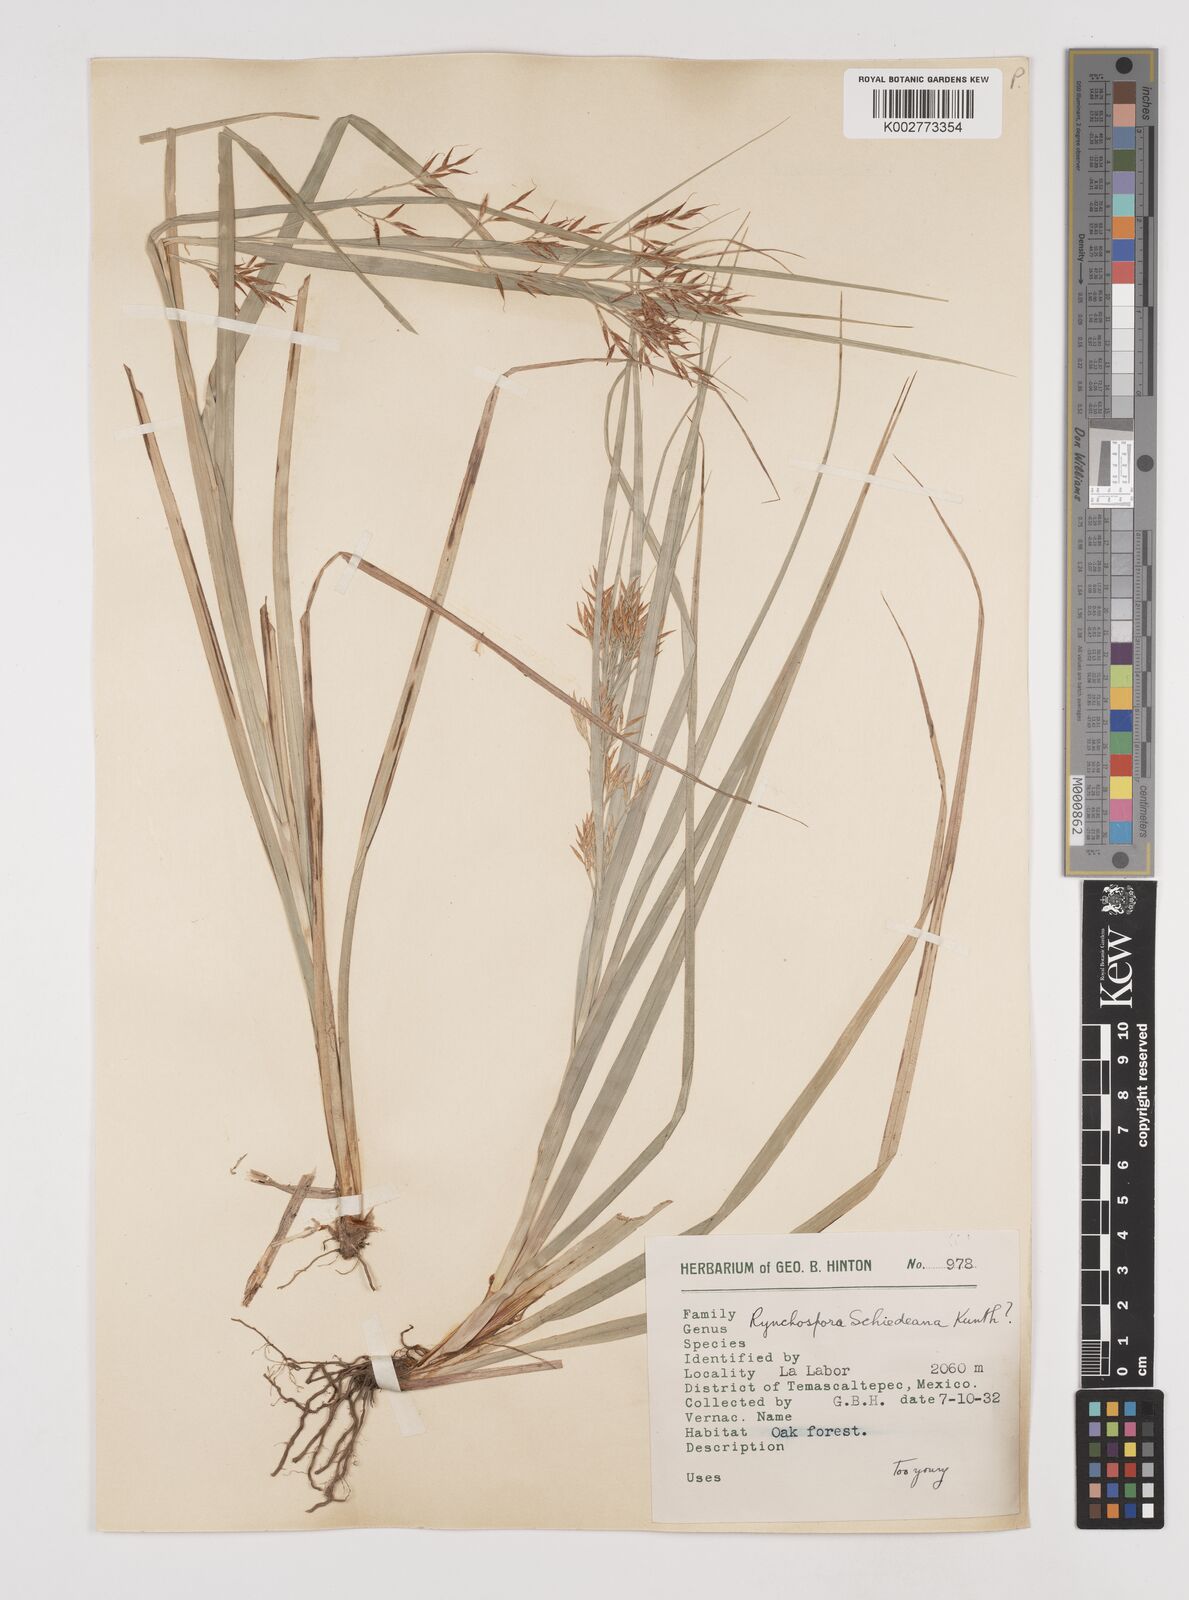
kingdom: Plantae
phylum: Tracheophyta
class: Liliopsida
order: Poales
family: Cyperaceae
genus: Rhynchospora
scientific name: Rhynchospora schiedeana
